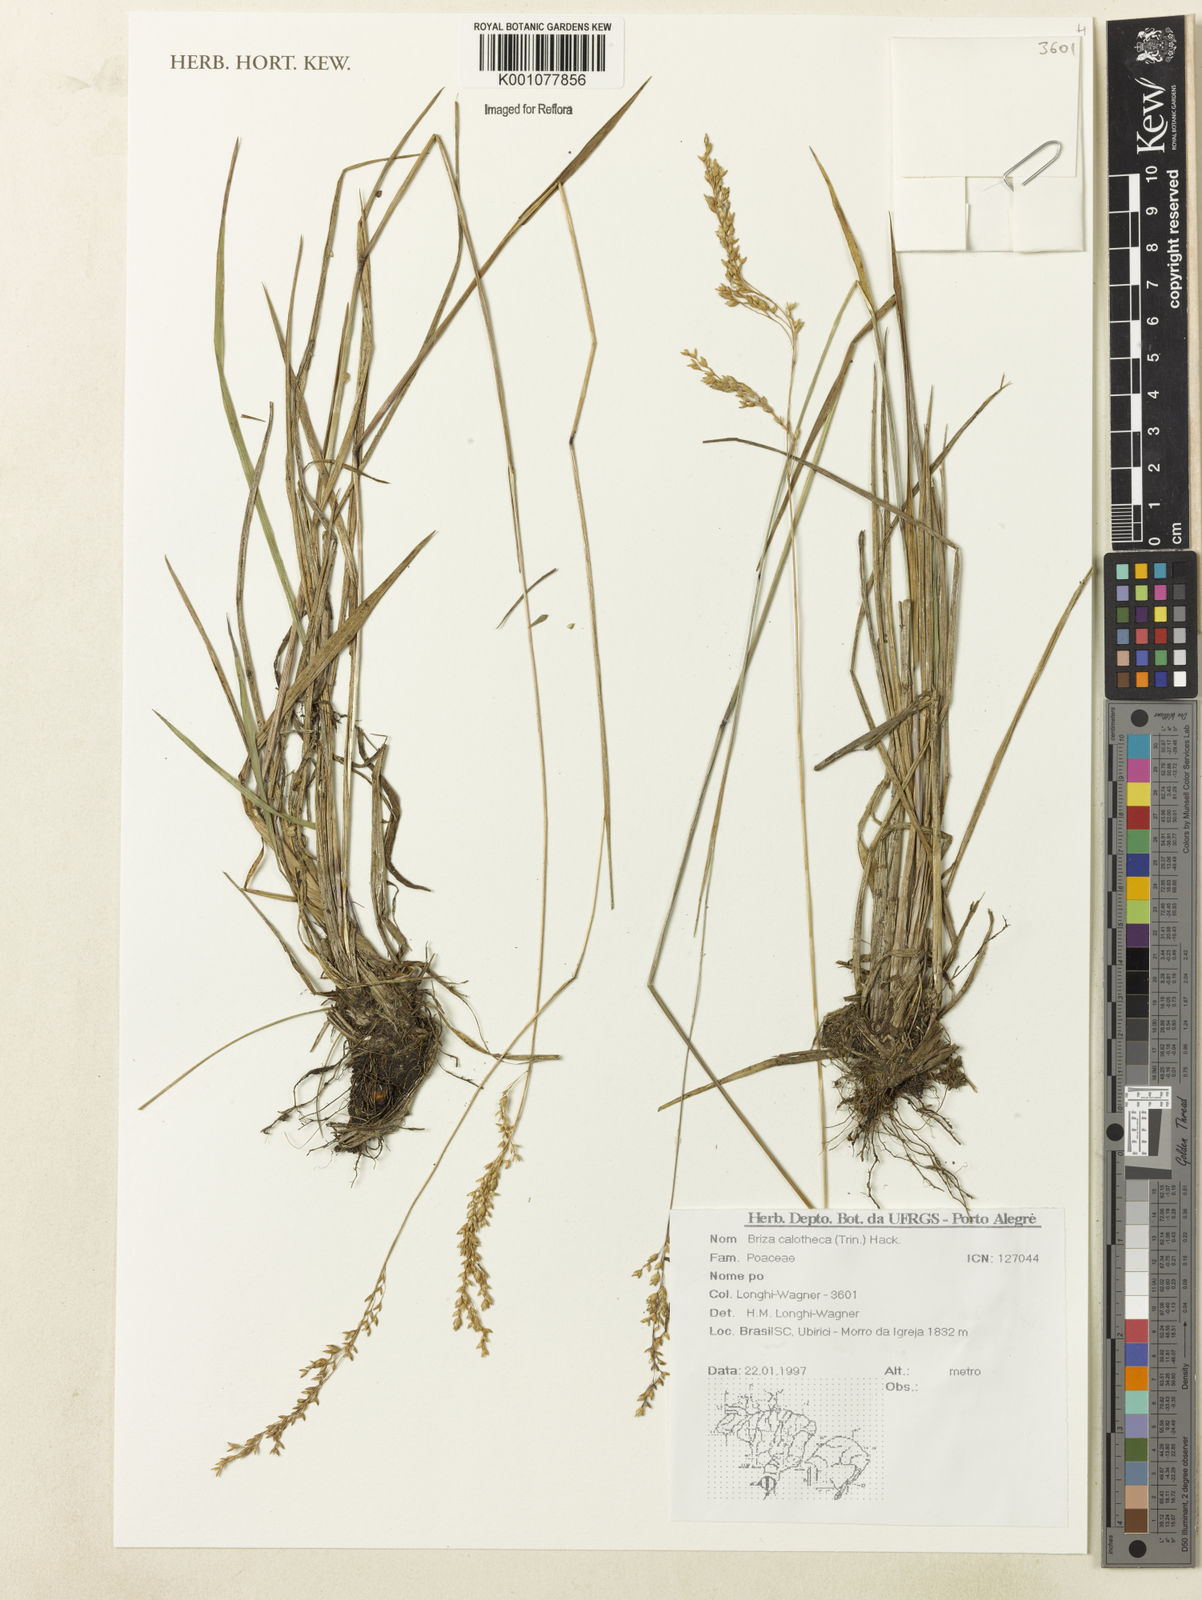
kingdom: Plantae
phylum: Tracheophyta
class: Liliopsida
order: Poales
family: Poaceae
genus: Poidium
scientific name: Poidium calotheca
